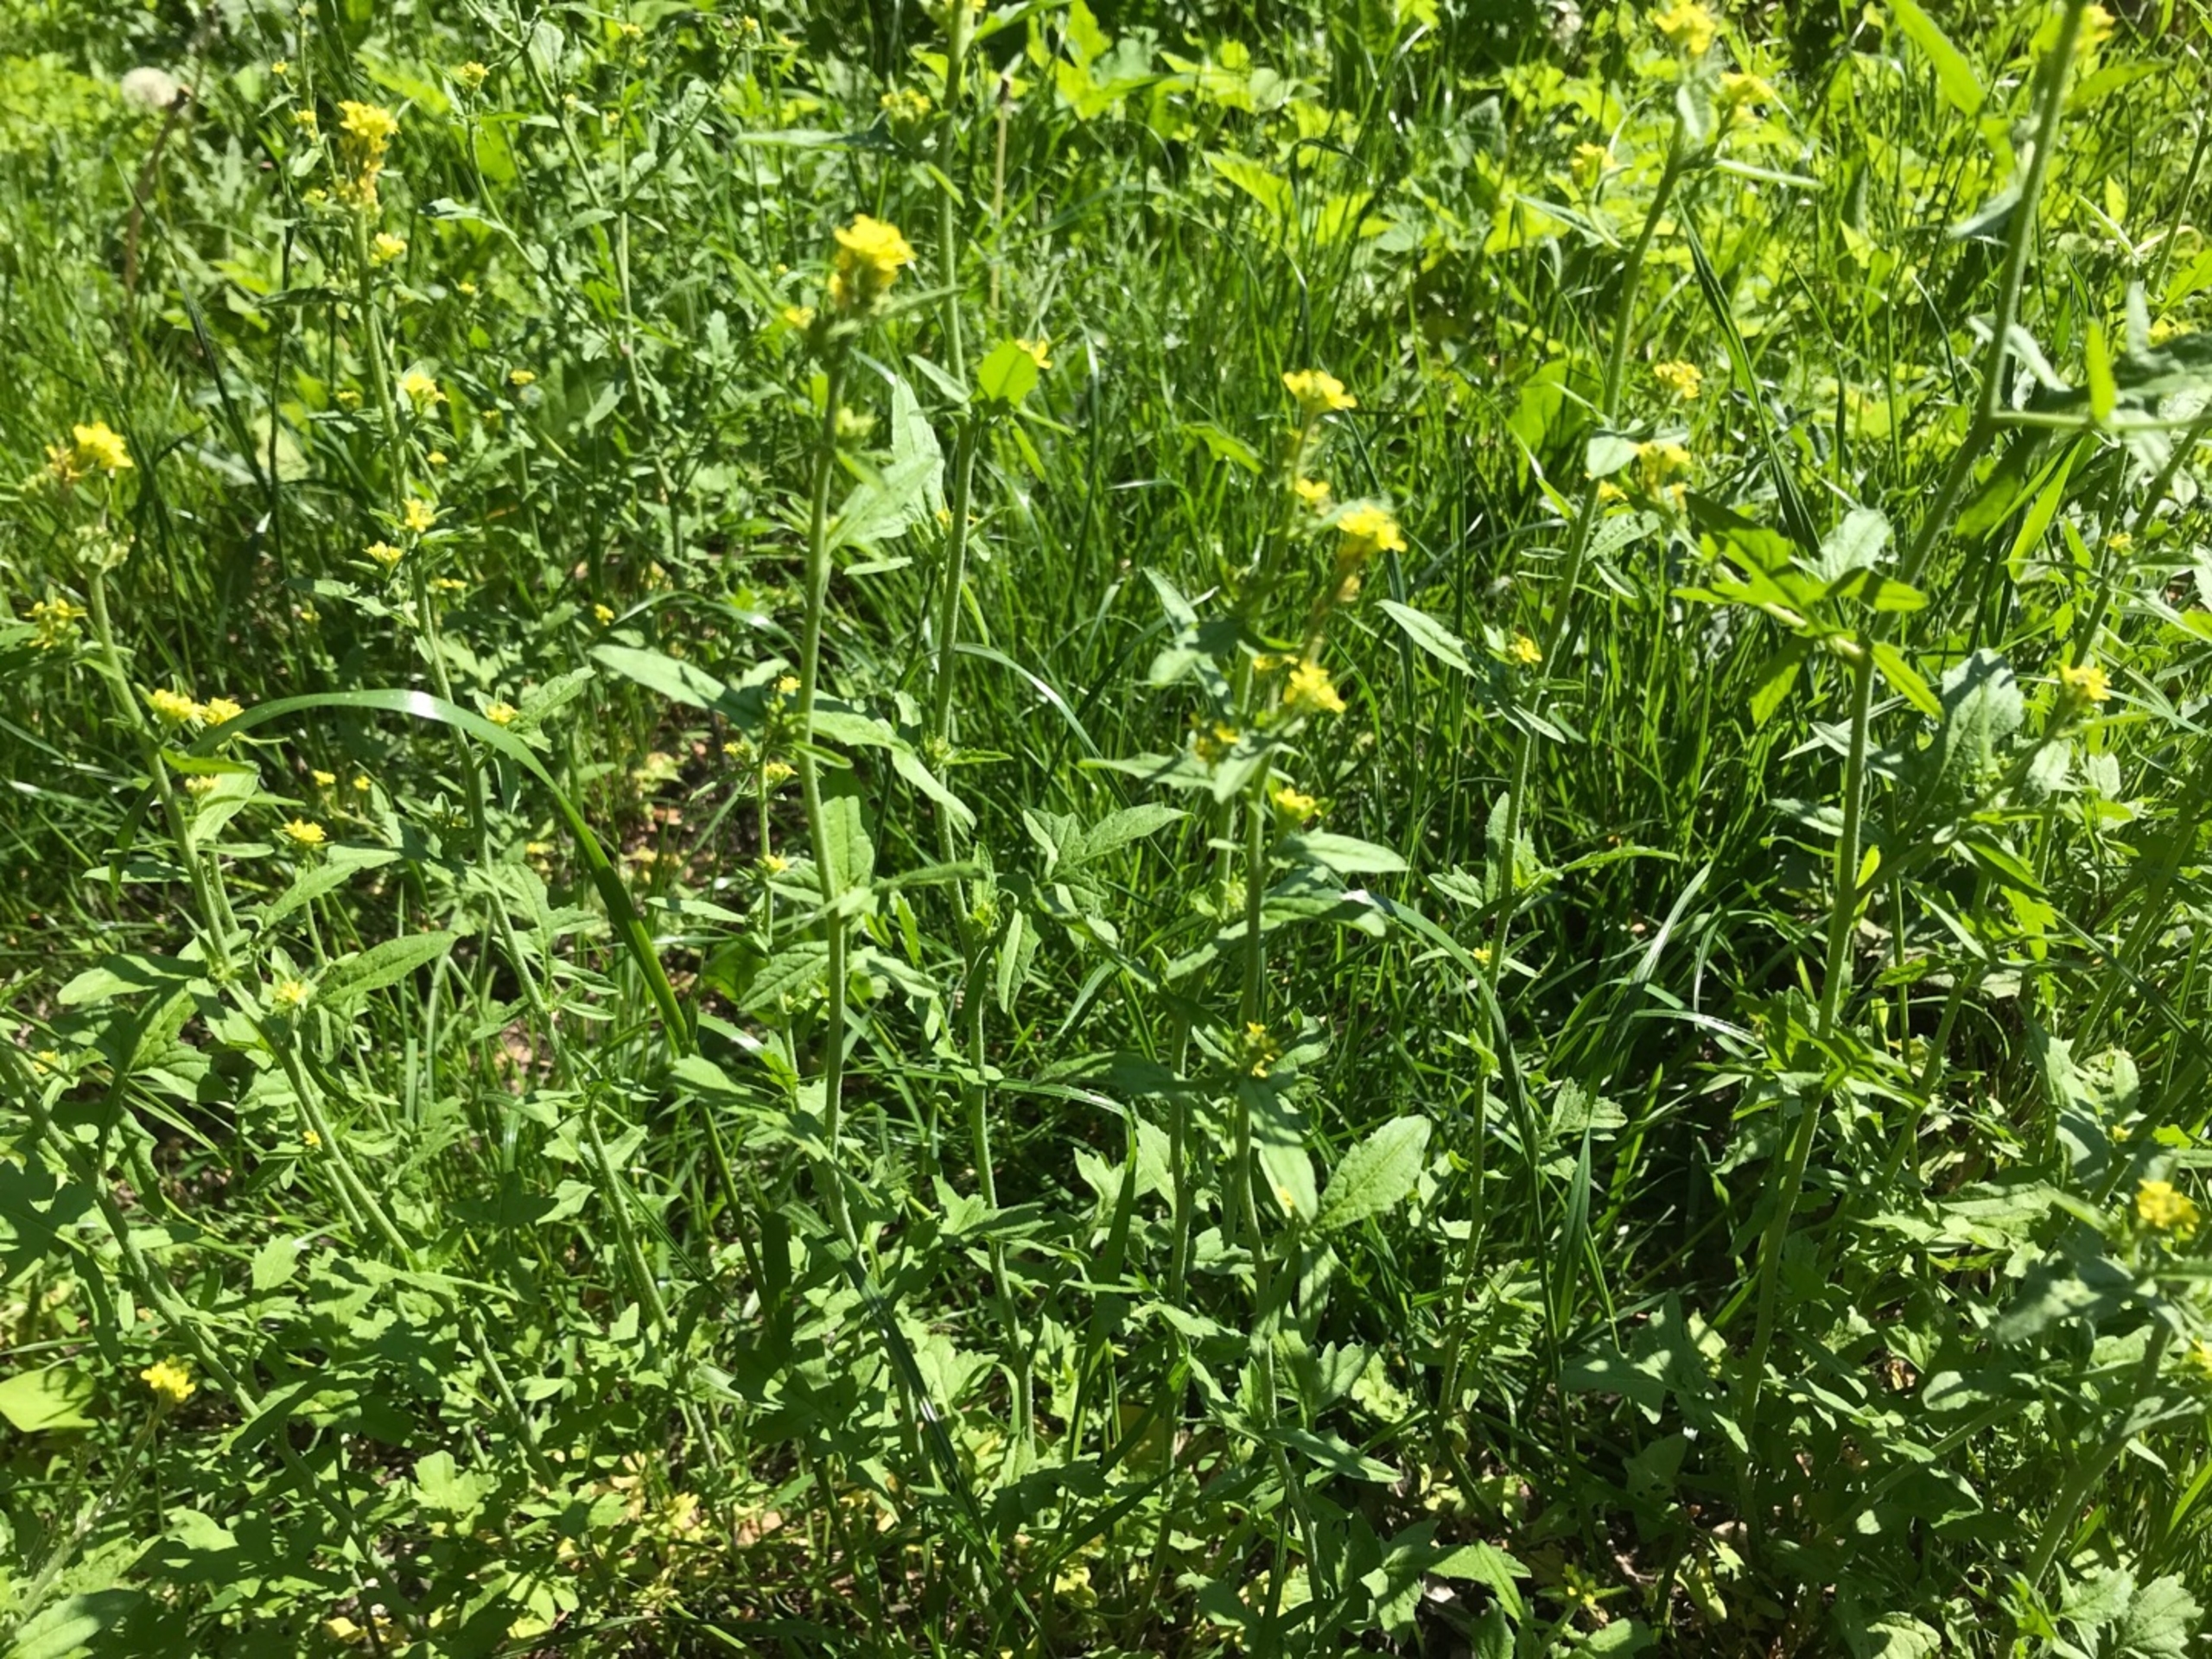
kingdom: Plantae
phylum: Tracheophyta
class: Magnoliopsida
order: Brassicales
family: Brassicaceae
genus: Sisymbrium
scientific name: Sisymbrium officinale
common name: Rank vejsennep
